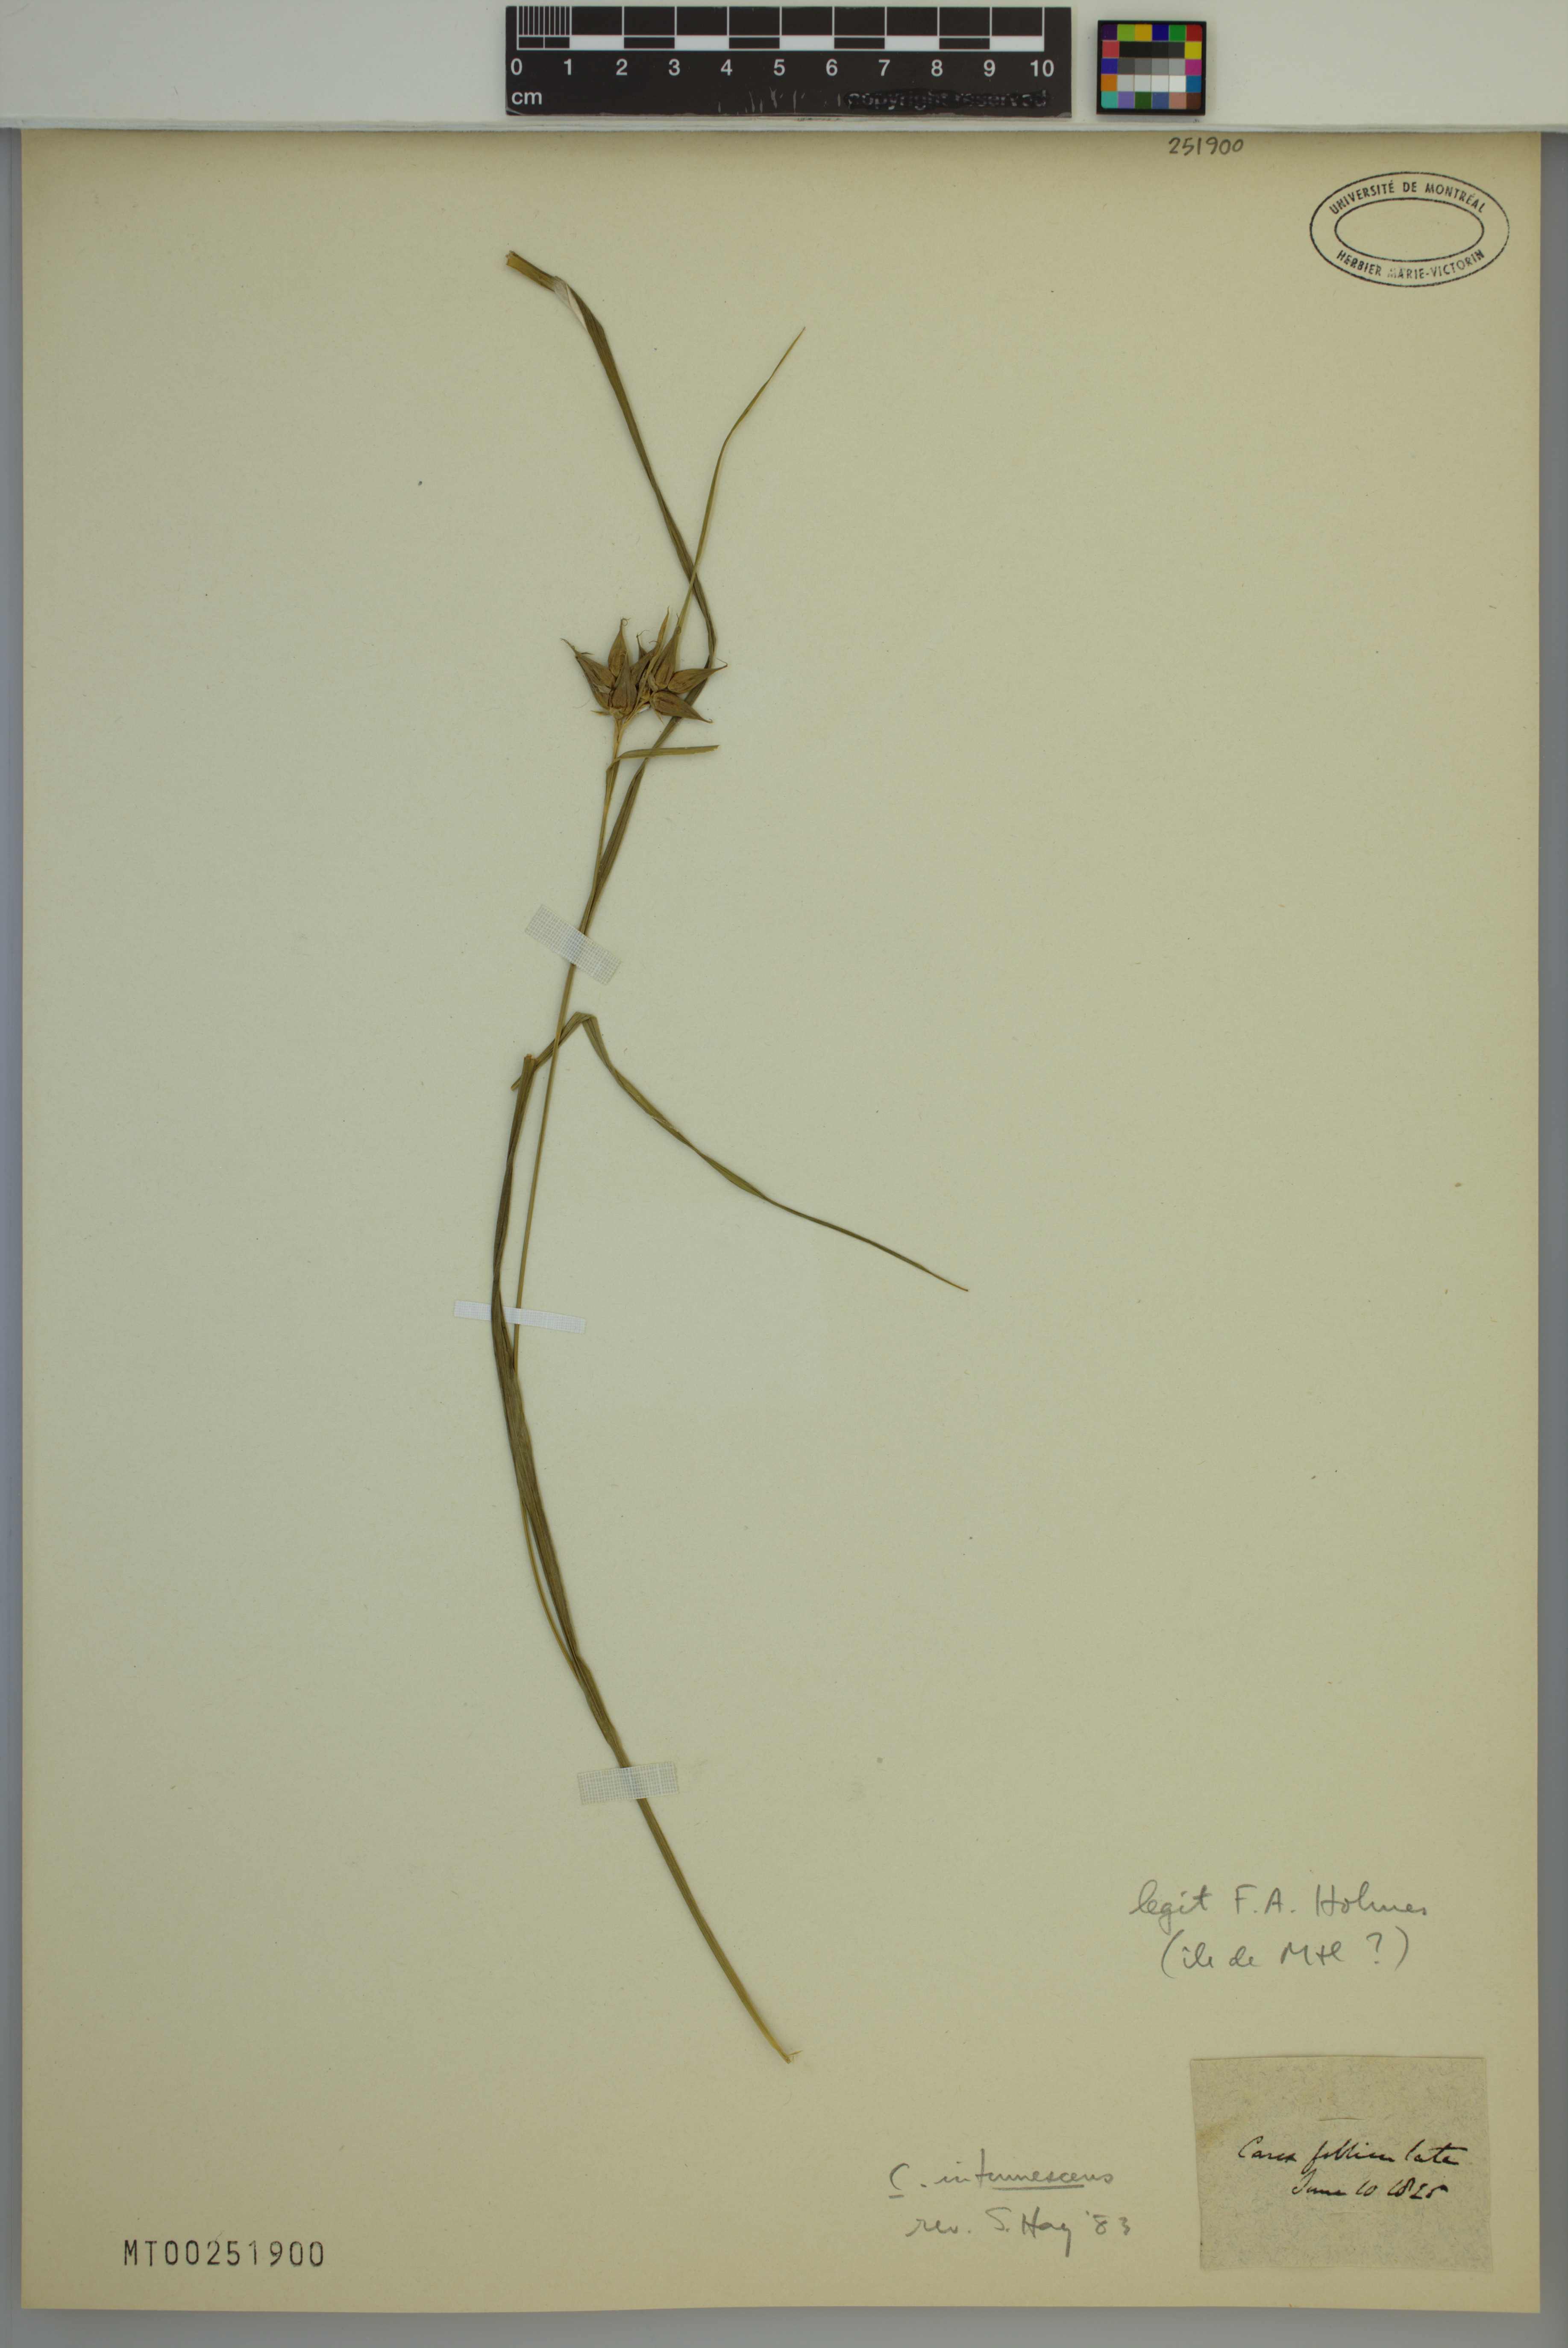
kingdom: Plantae
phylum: Tracheophyta
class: Liliopsida
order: Poales
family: Cyperaceae
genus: Carex
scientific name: Carex intumescens
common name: Greater bladder sedge
